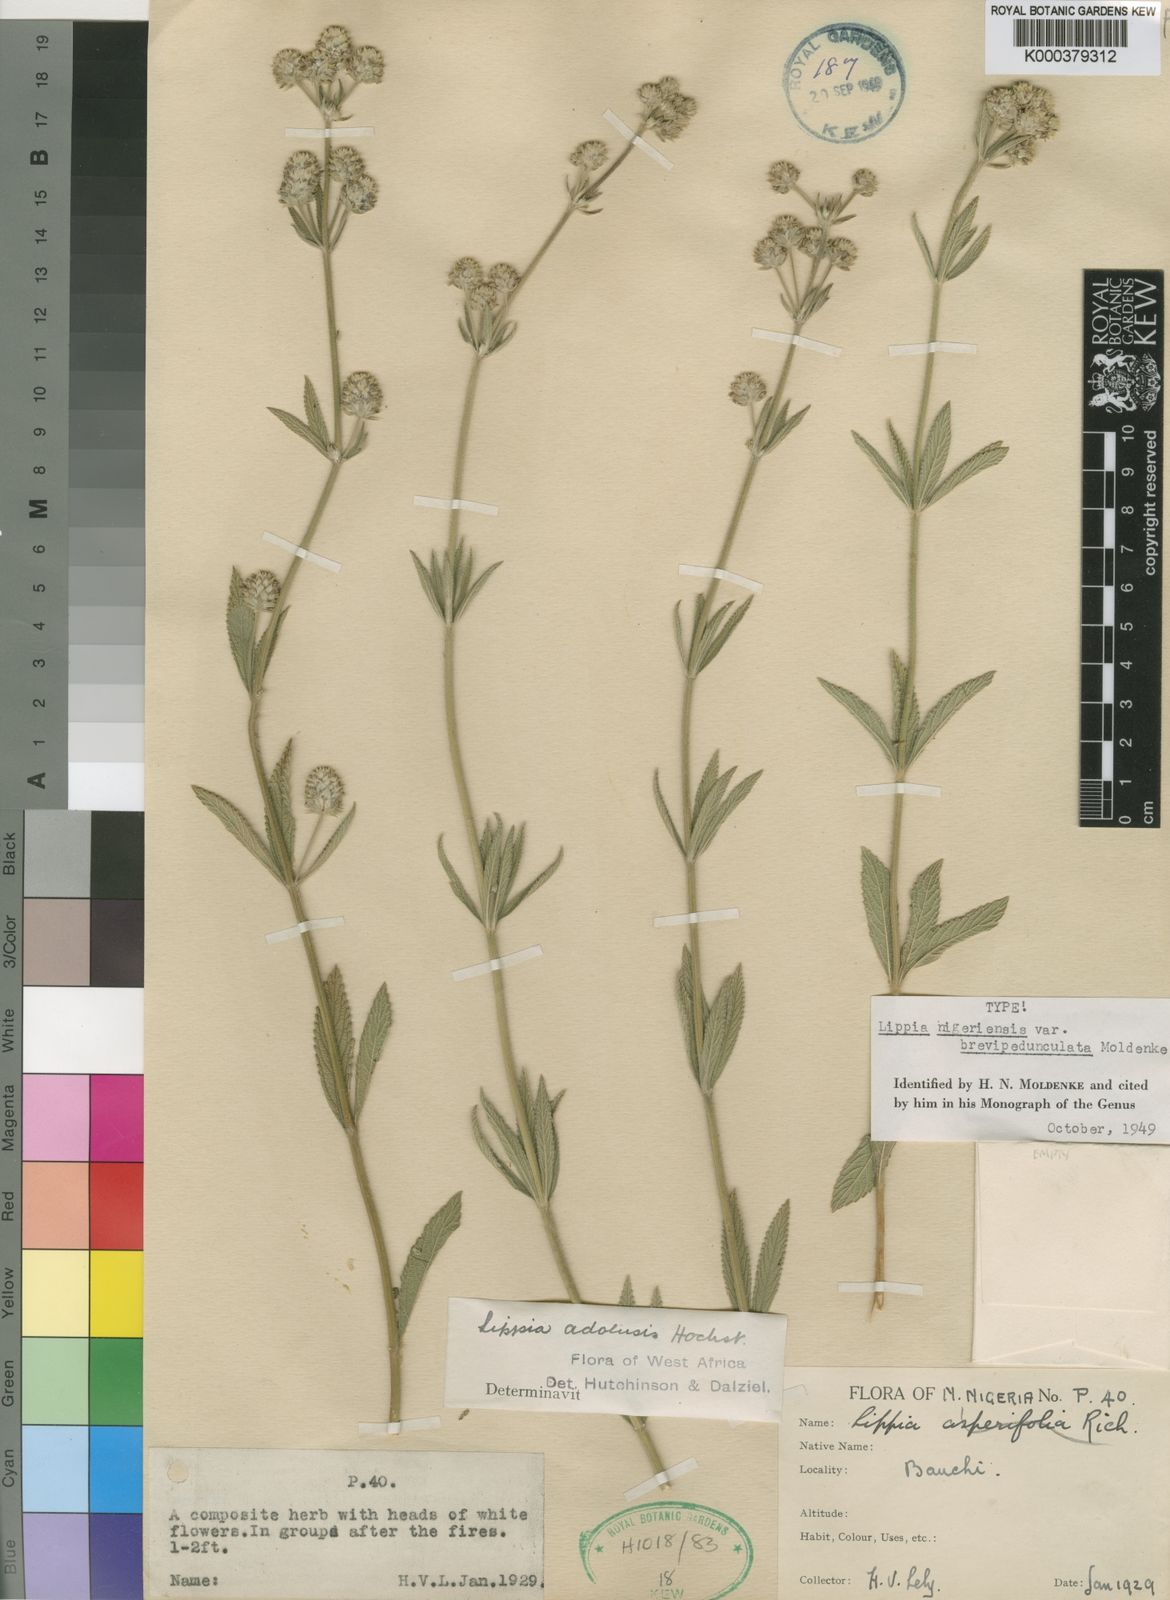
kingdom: Plantae
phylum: Tracheophyta
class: Magnoliopsida
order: Lamiales
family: Verbenaceae
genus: Lippia
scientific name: Lippia savoryi
